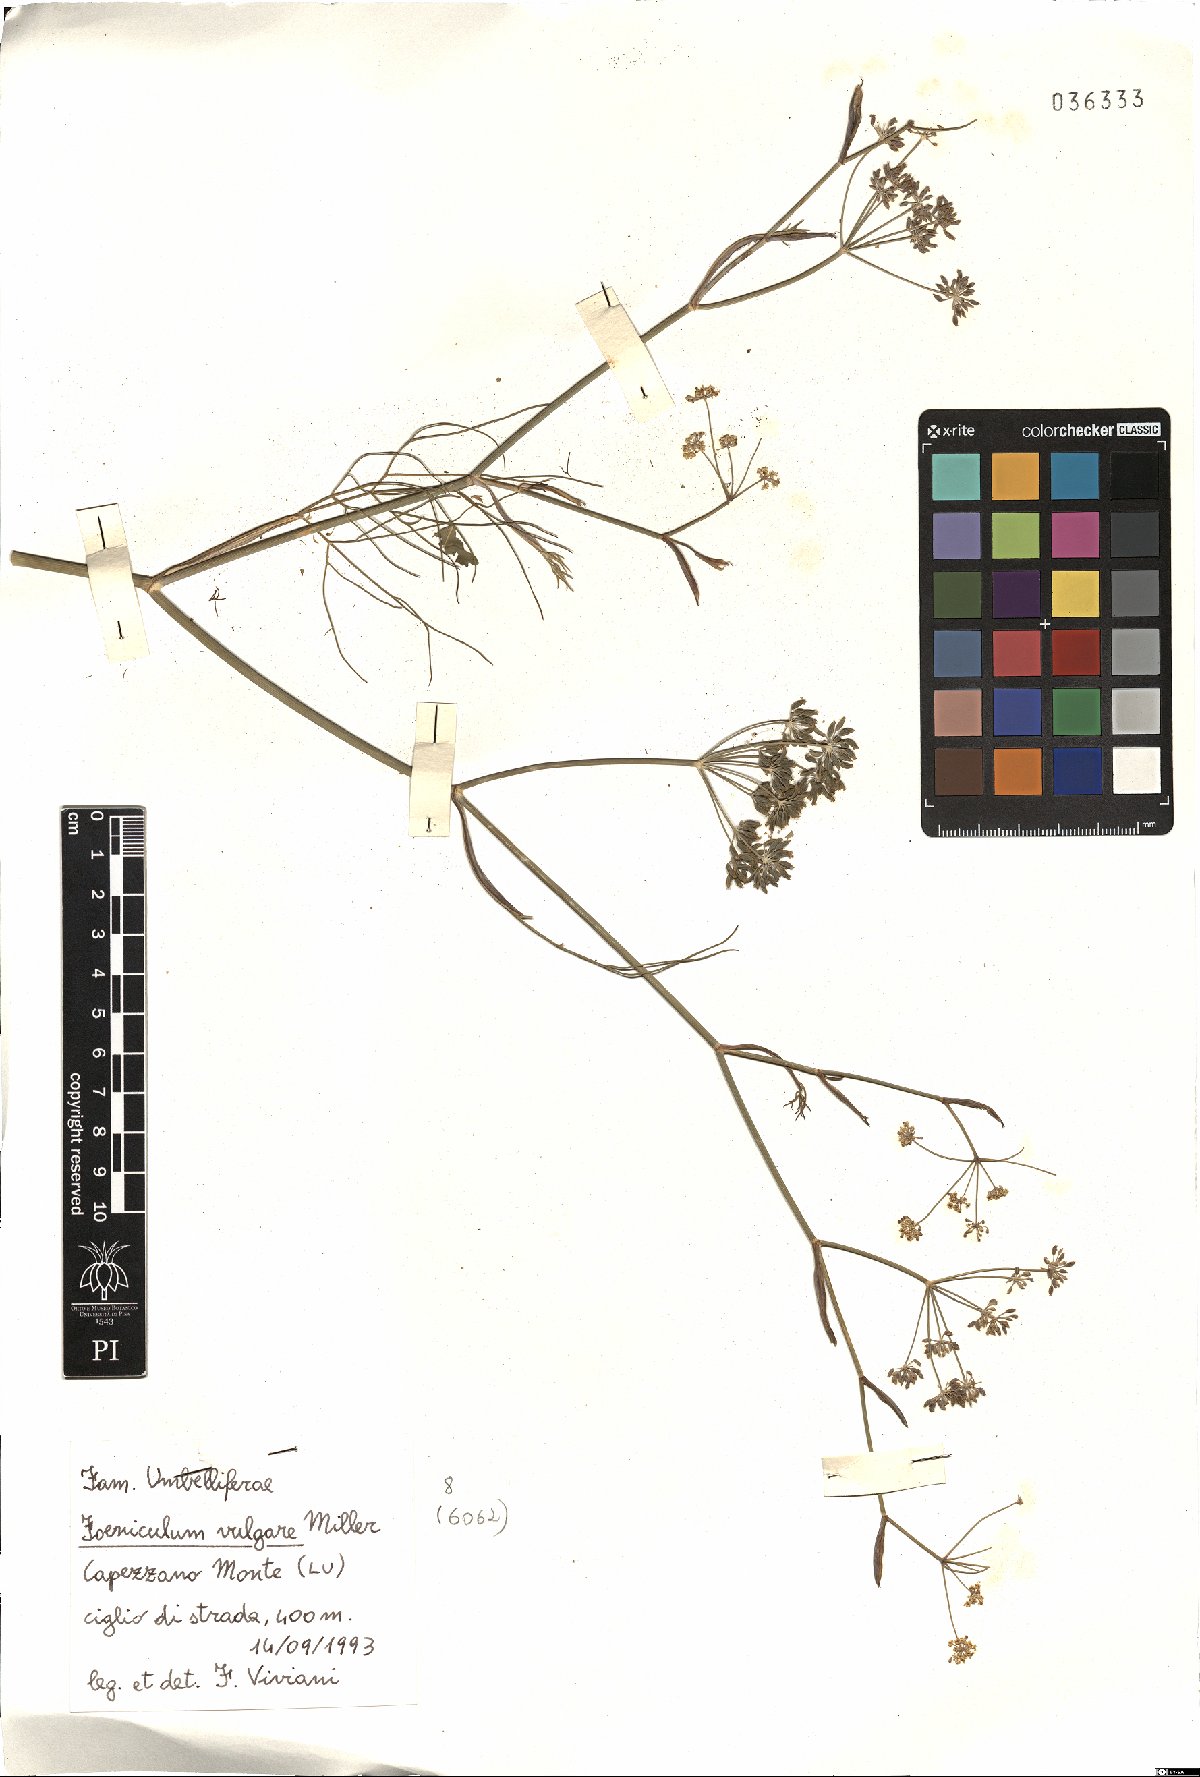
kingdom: Plantae
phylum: Tracheophyta
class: Magnoliopsida
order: Apiales
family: Apiaceae
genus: Foeniculum
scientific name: Foeniculum vulgare
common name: Fennel
